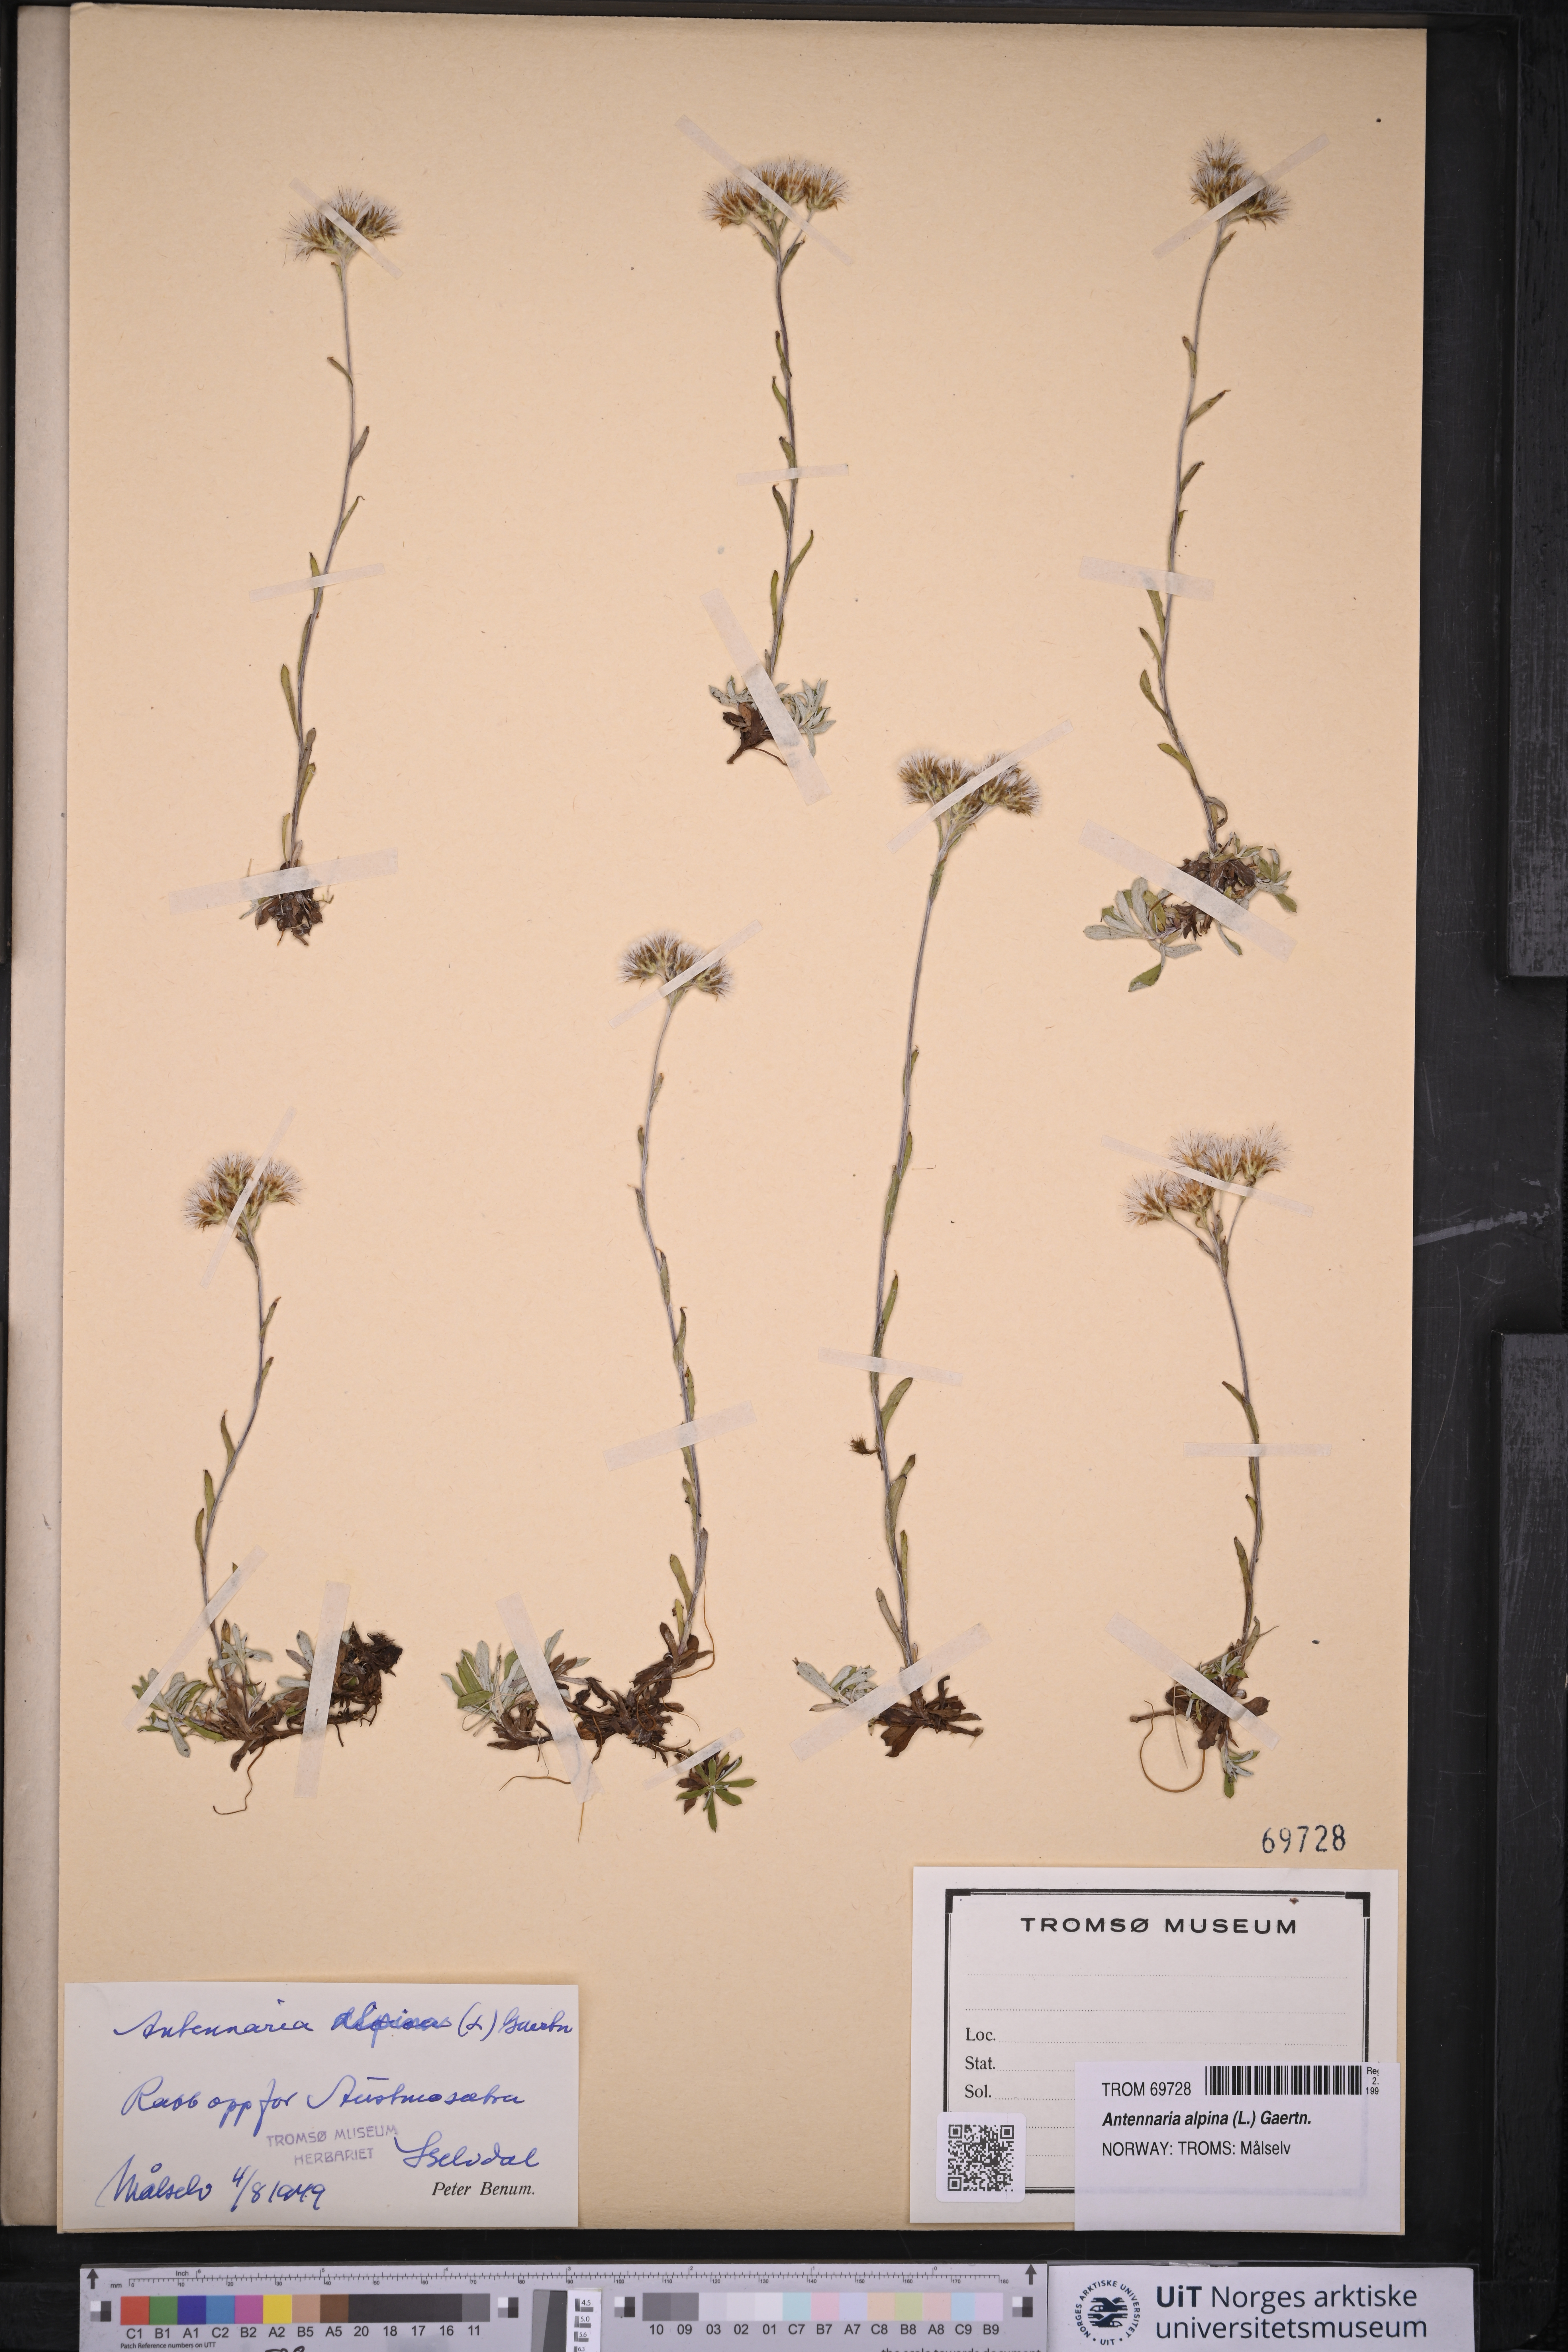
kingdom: Plantae
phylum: Tracheophyta
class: Magnoliopsida
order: Asterales
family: Asteraceae
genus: Antennaria
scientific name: Antennaria alpina
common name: Alpine pussytoes
